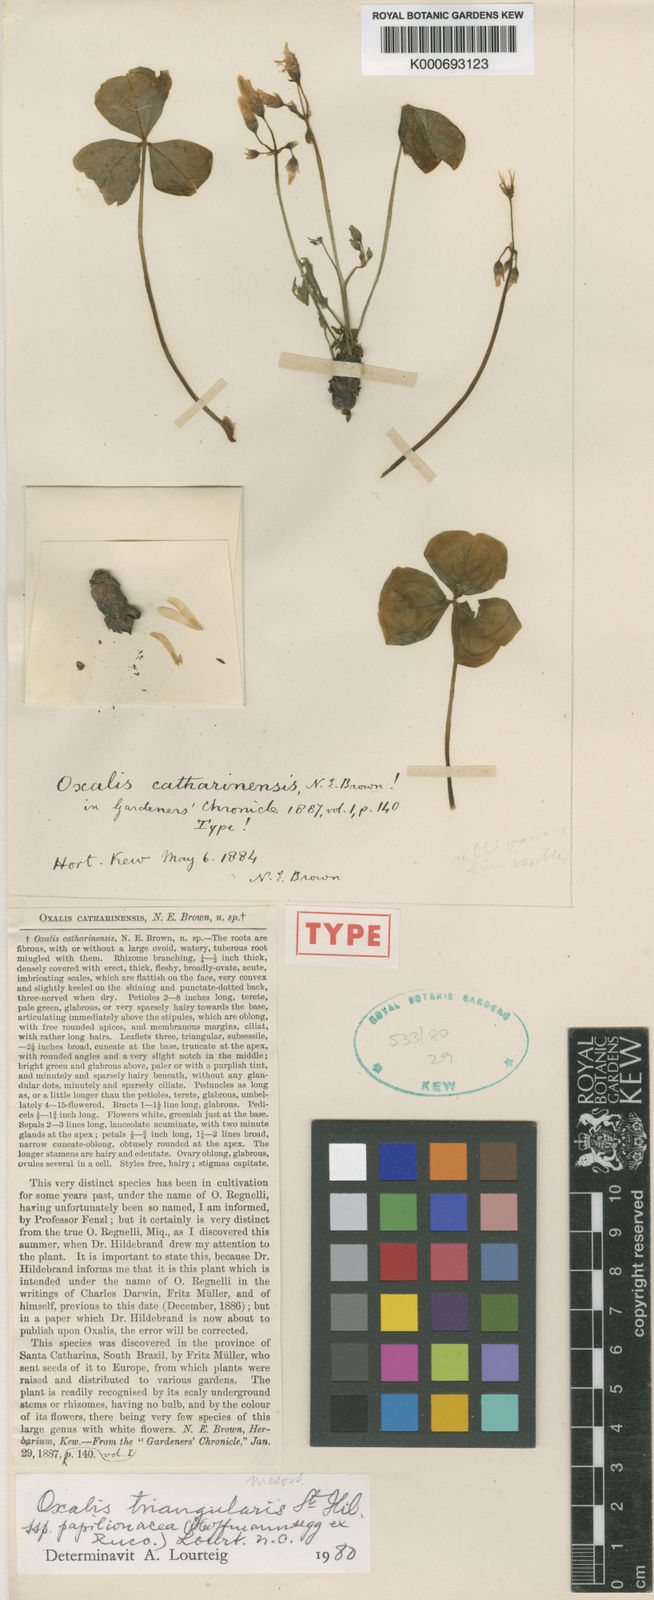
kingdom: Plantae
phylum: Tracheophyta
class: Magnoliopsida
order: Oxalidales
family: Oxalidaceae
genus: Oxalis
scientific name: Oxalis triangularis
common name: Wood sorrel
